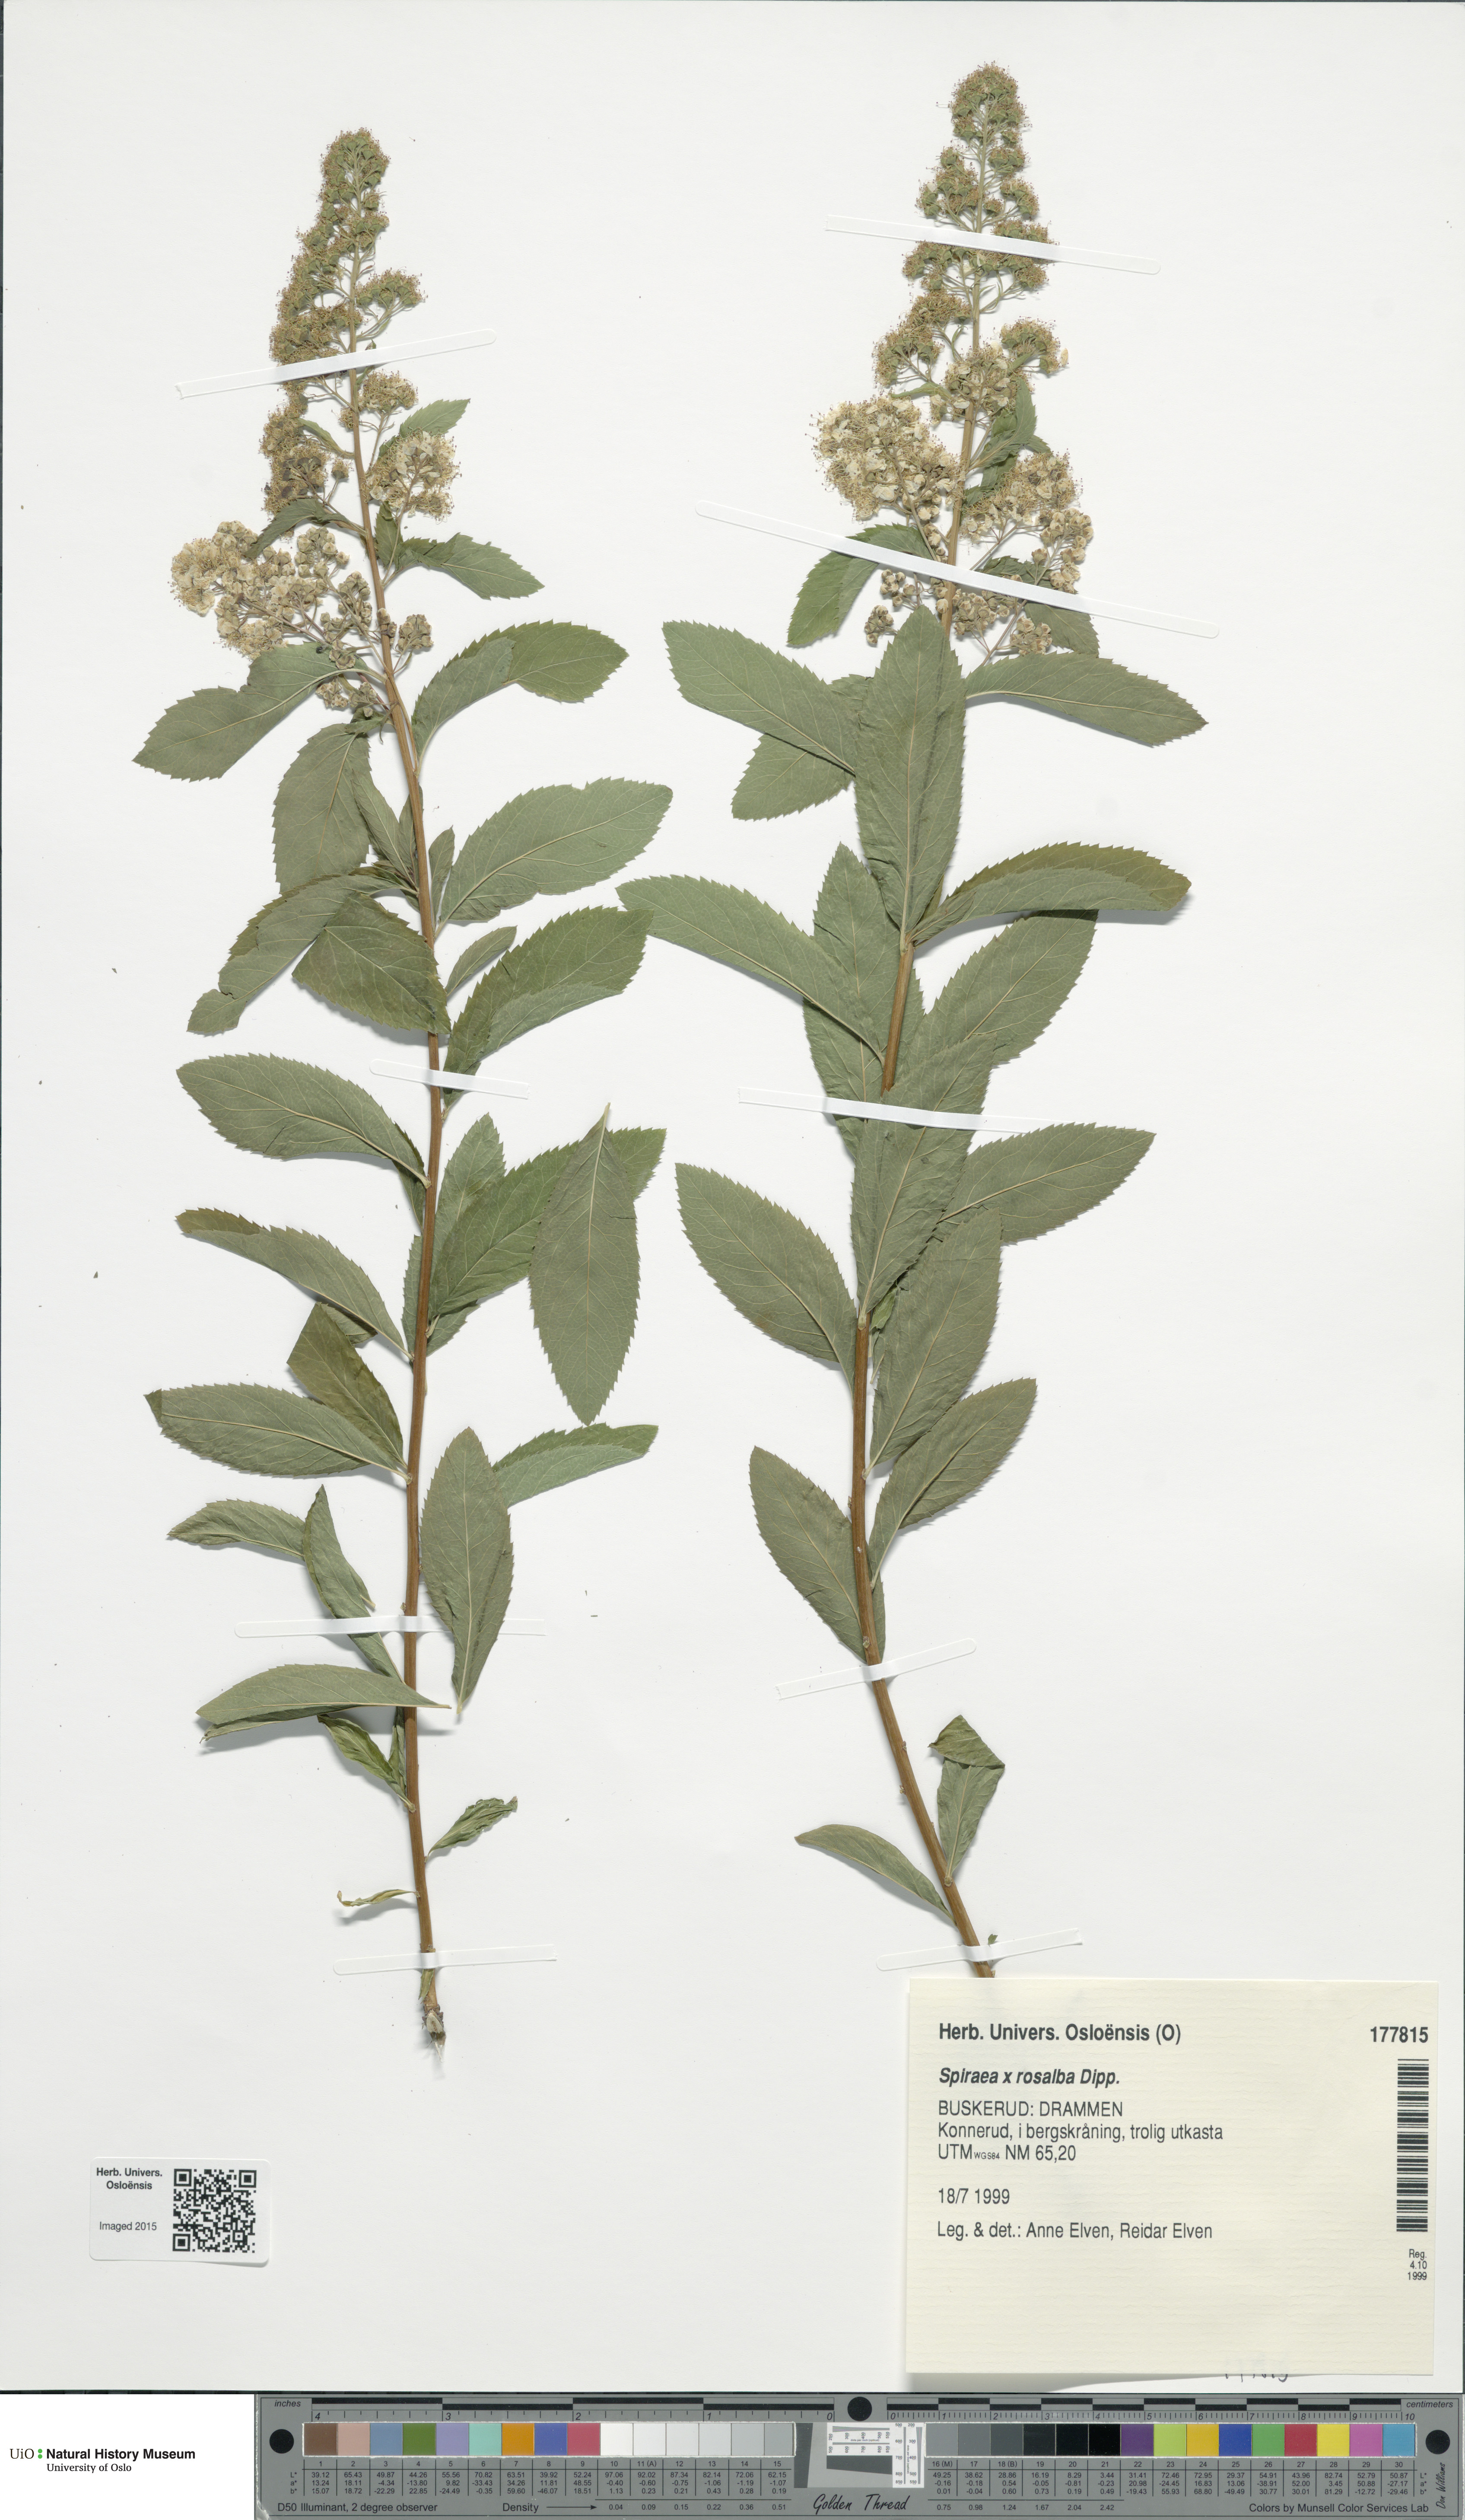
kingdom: Plantae
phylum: Tracheophyta
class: Magnoliopsida
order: Rosales
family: Rosaceae
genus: Spiraea
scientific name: Spiraea rosalba
